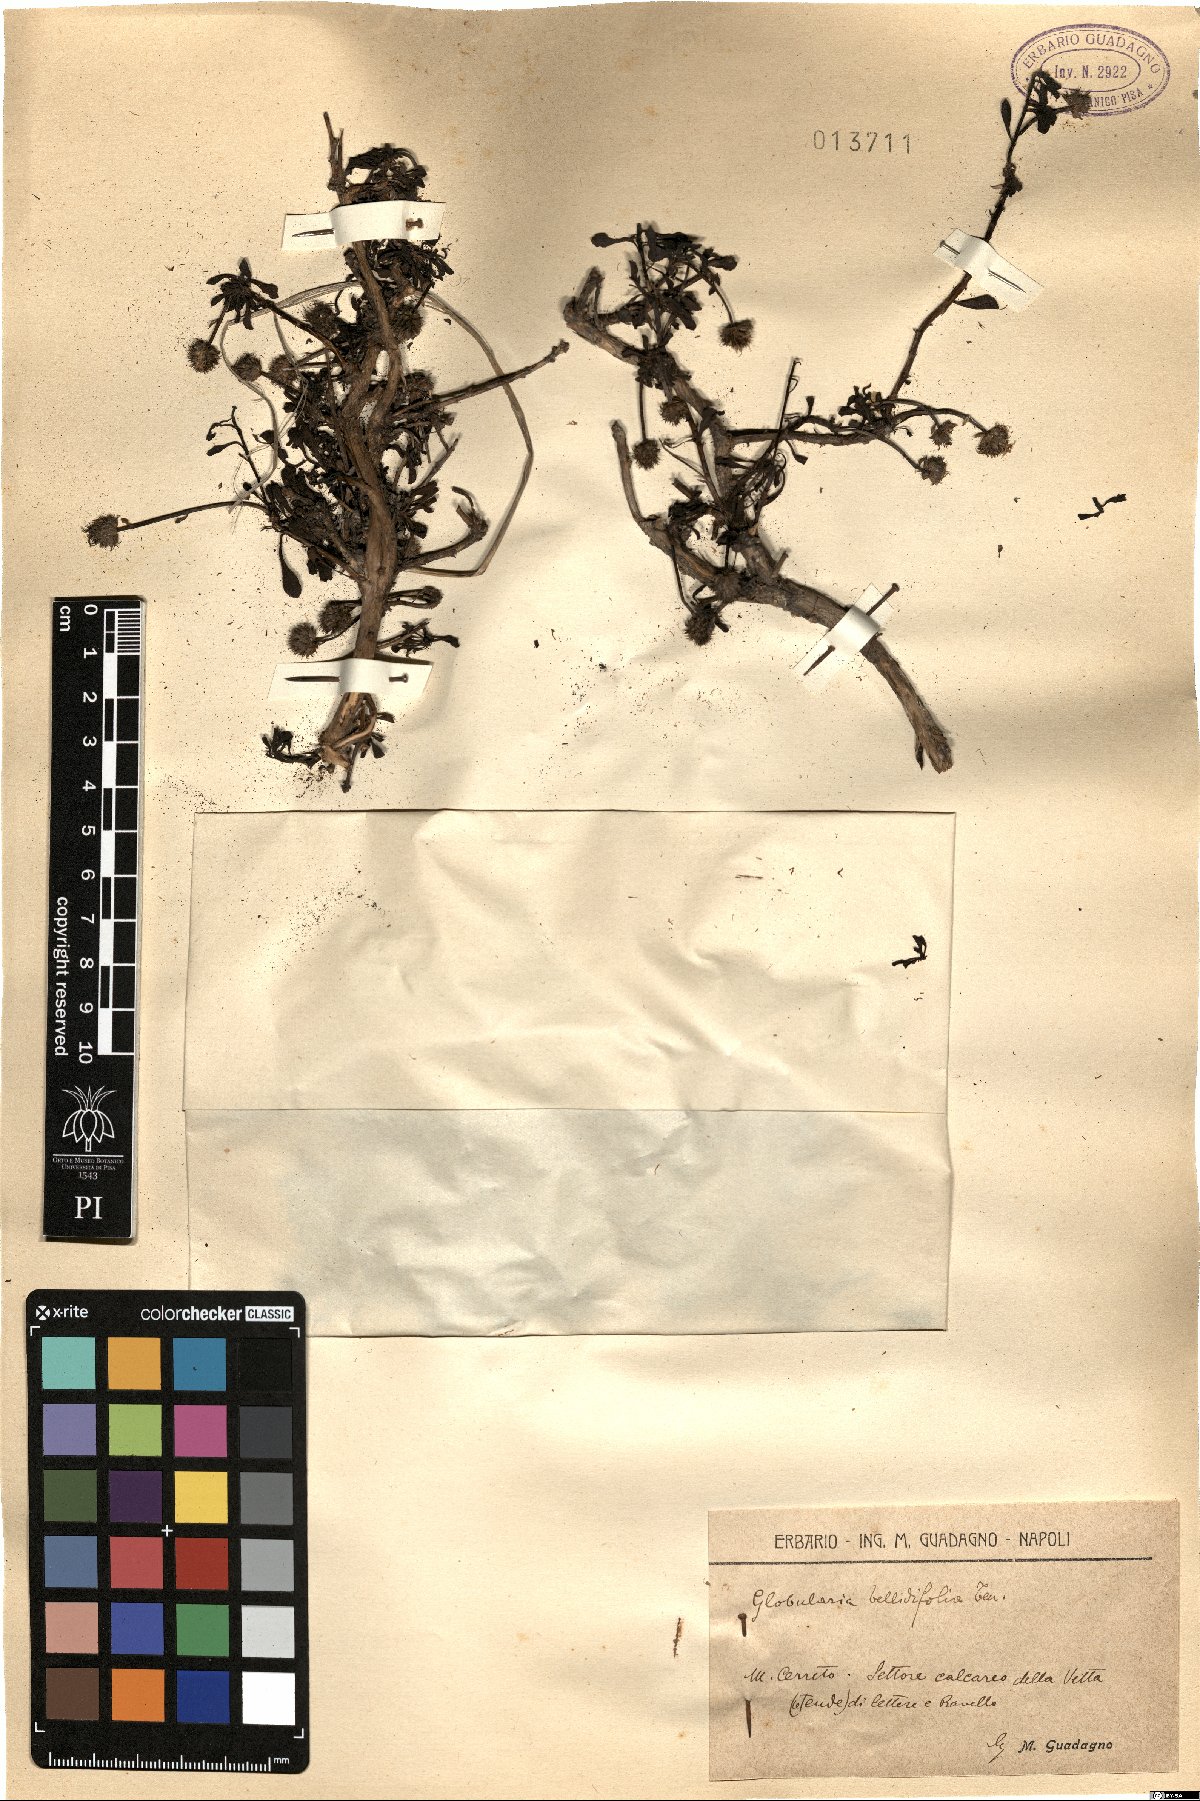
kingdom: Plantae
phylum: Tracheophyta
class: Magnoliopsida
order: Lamiales
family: Plantaginaceae
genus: Globularia
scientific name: Globularia meridionalis
